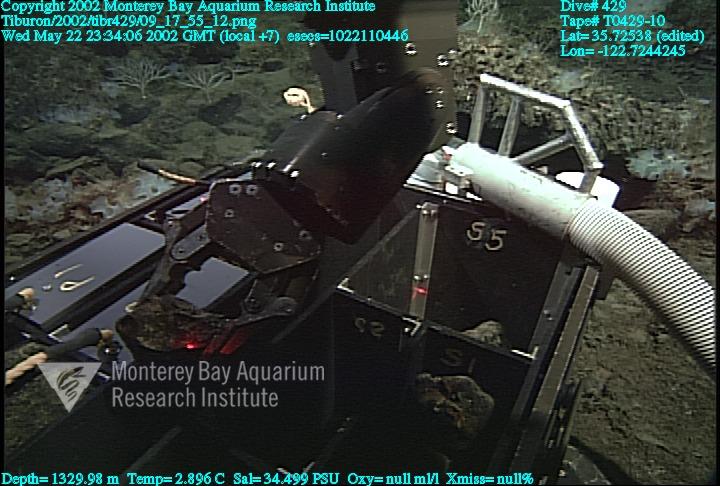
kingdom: Animalia
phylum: Porifera
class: Hexactinellida
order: Sceptrulophora
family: Farreidae
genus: Farrea
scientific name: Farrea occa
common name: Reversed glass sponge
